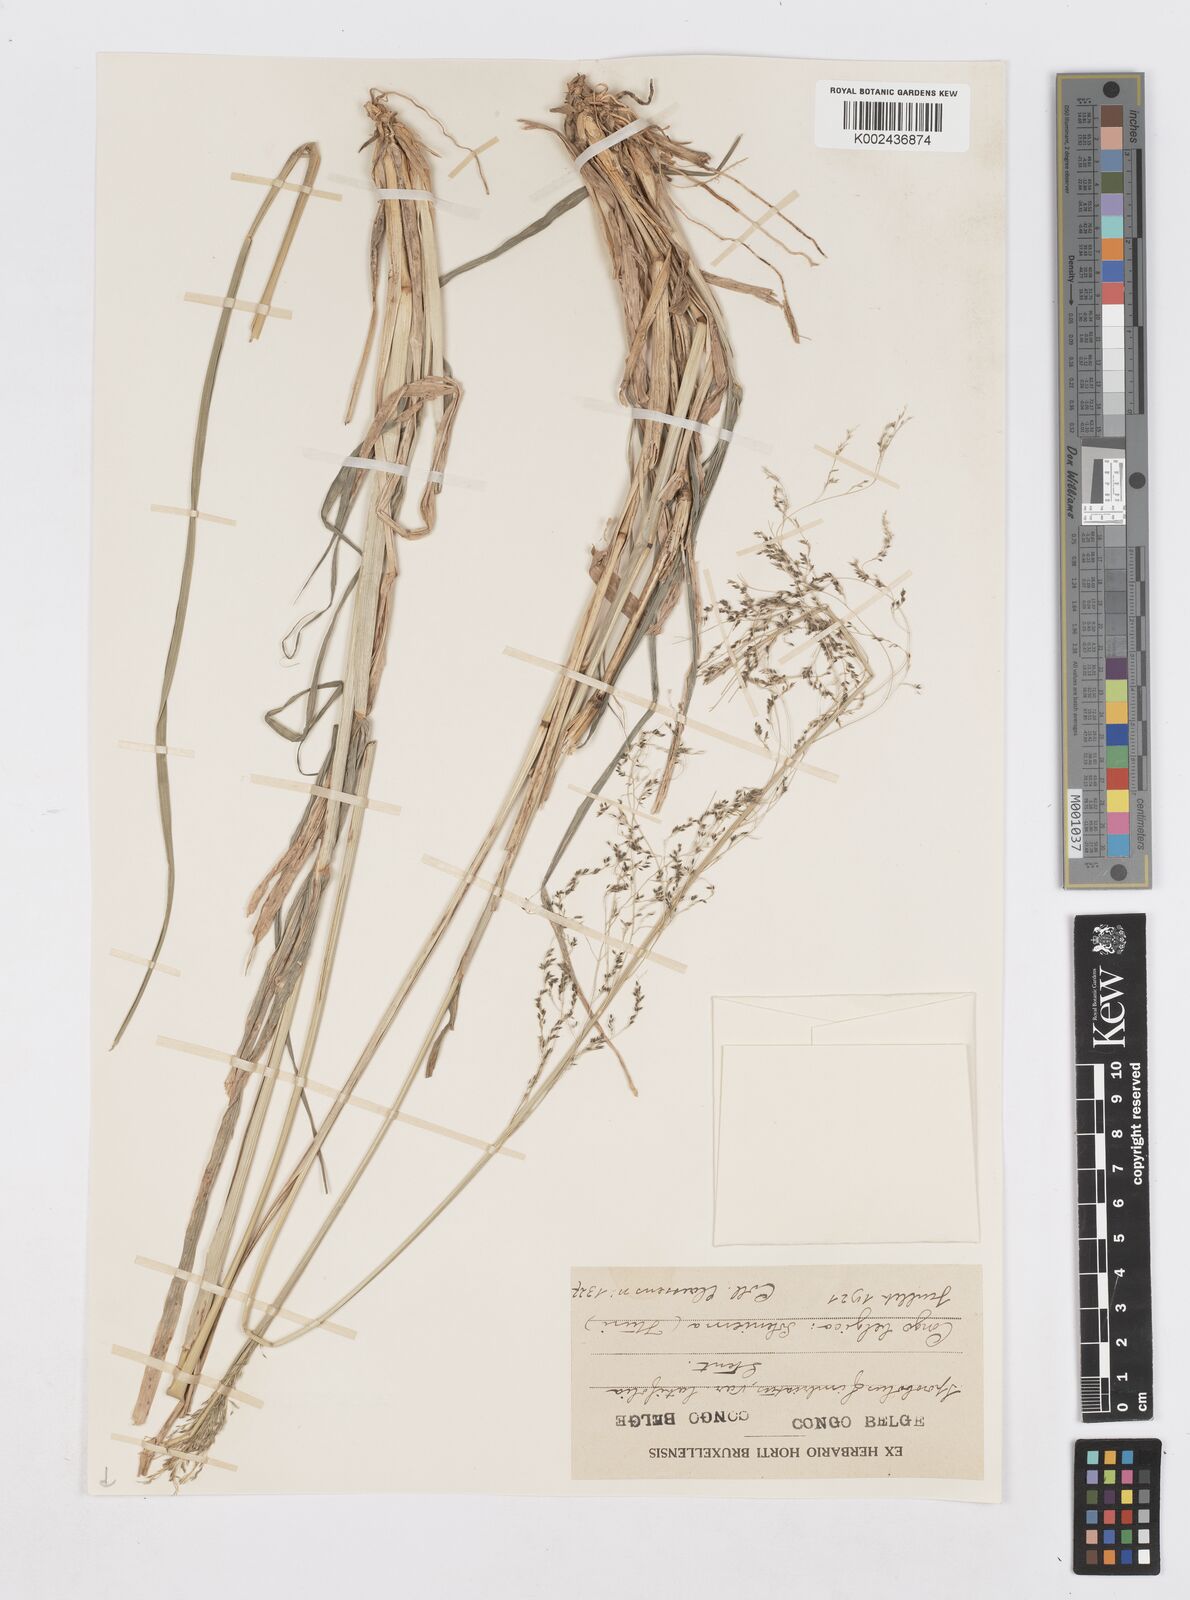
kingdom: Plantae
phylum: Tracheophyta
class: Liliopsida
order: Poales
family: Poaceae
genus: Sporobolus
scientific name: Sporobolus agrostoides
